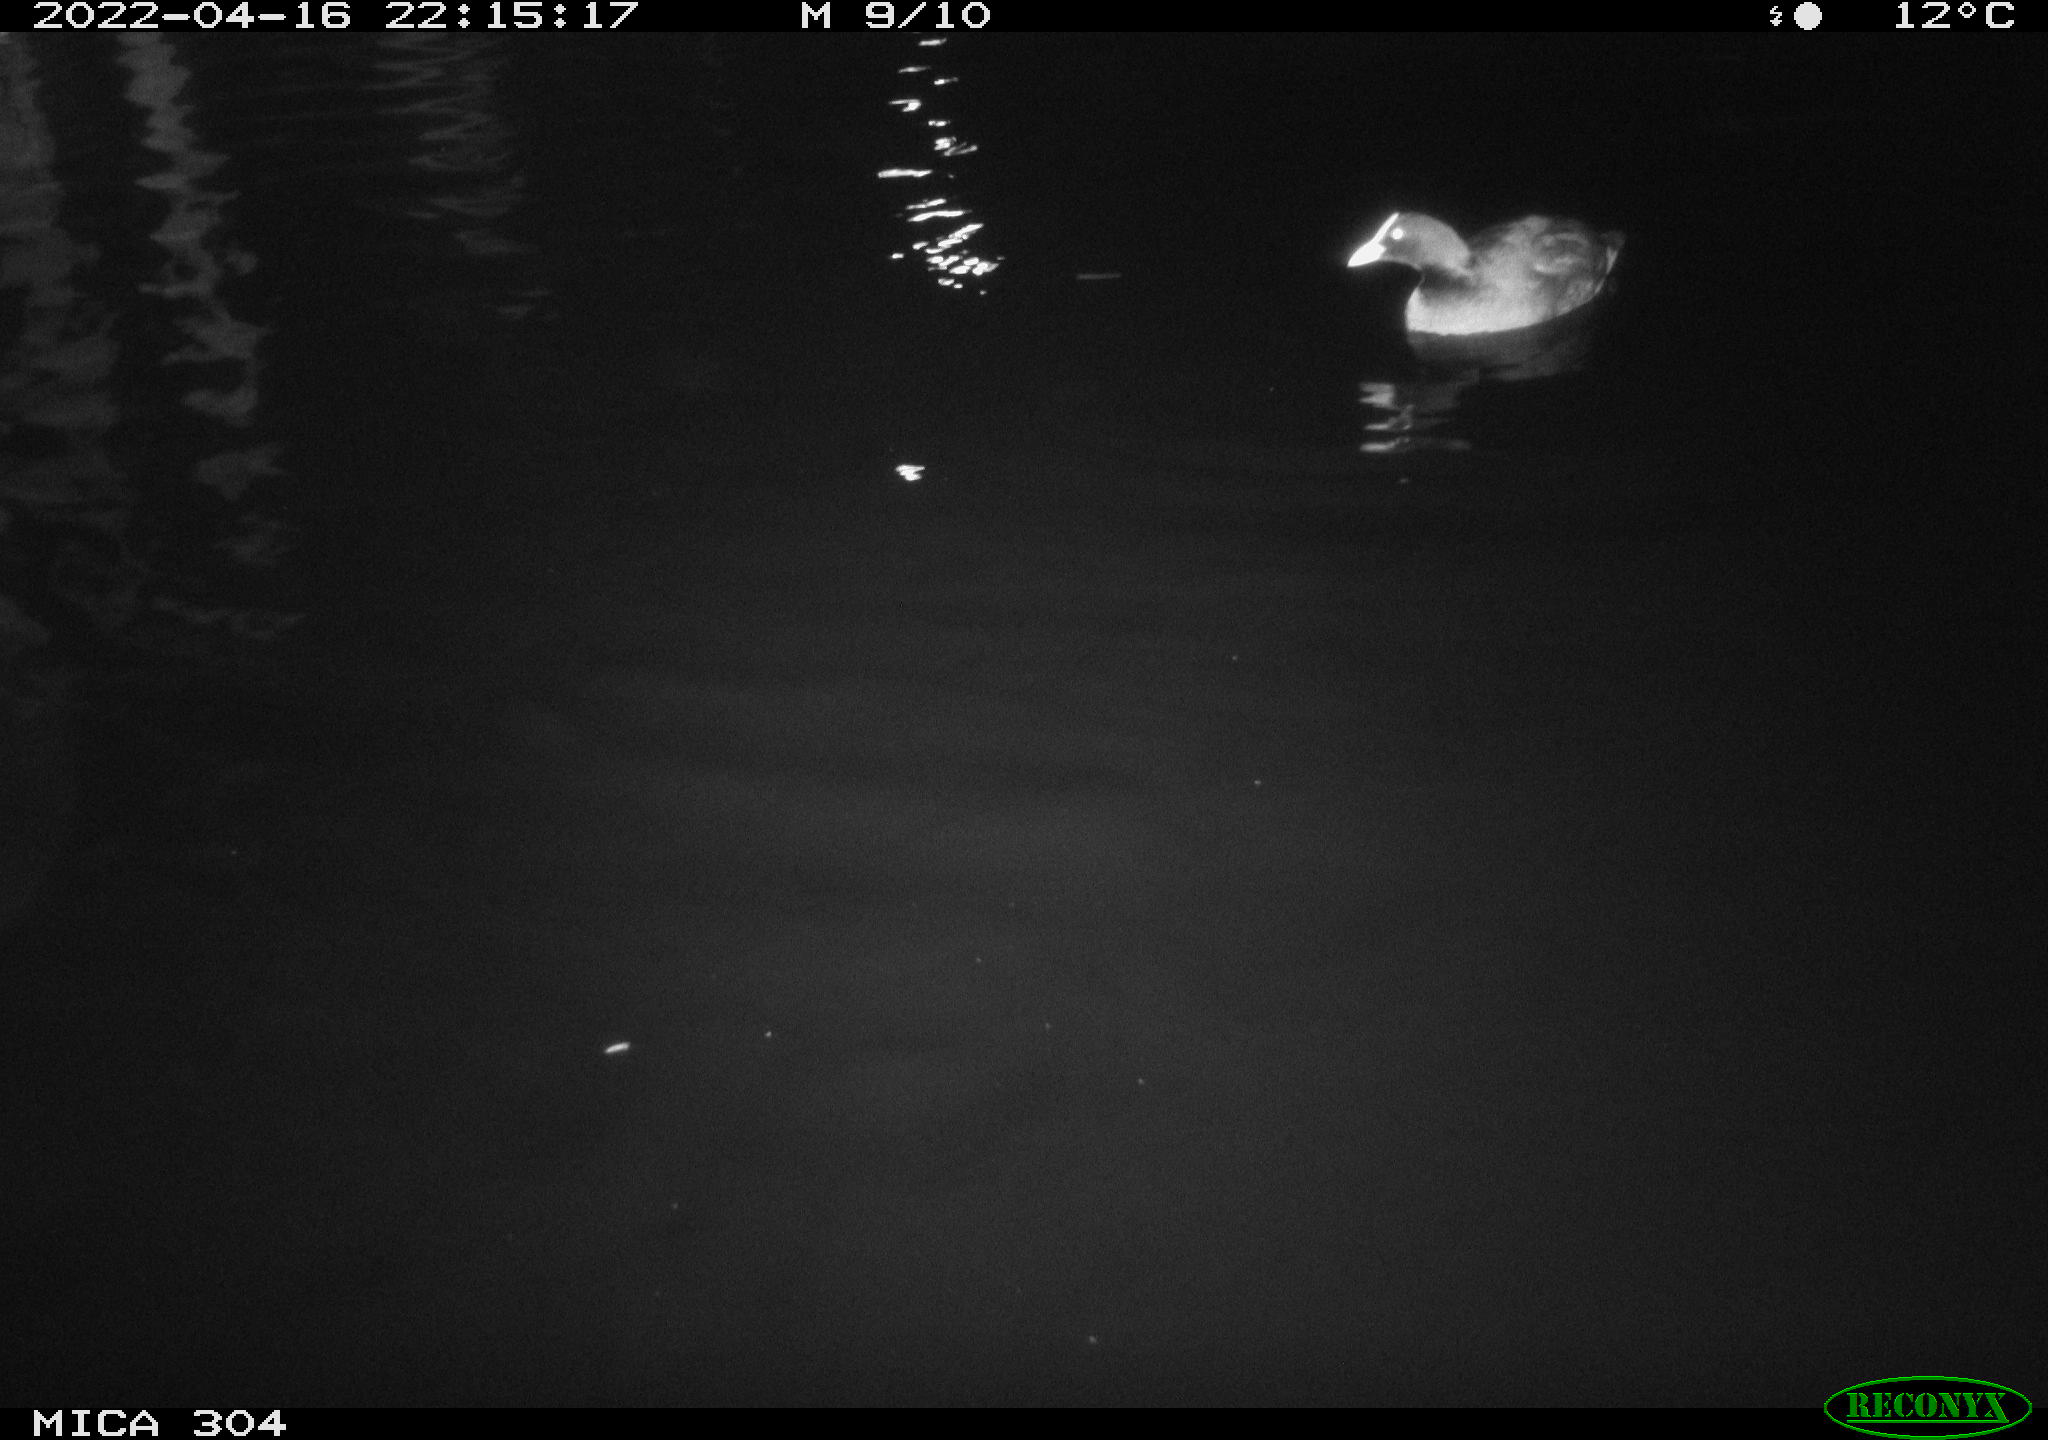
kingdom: Animalia
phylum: Chordata
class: Aves
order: Gruiformes
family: Rallidae
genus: Fulica
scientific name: Fulica atra
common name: Eurasian coot
